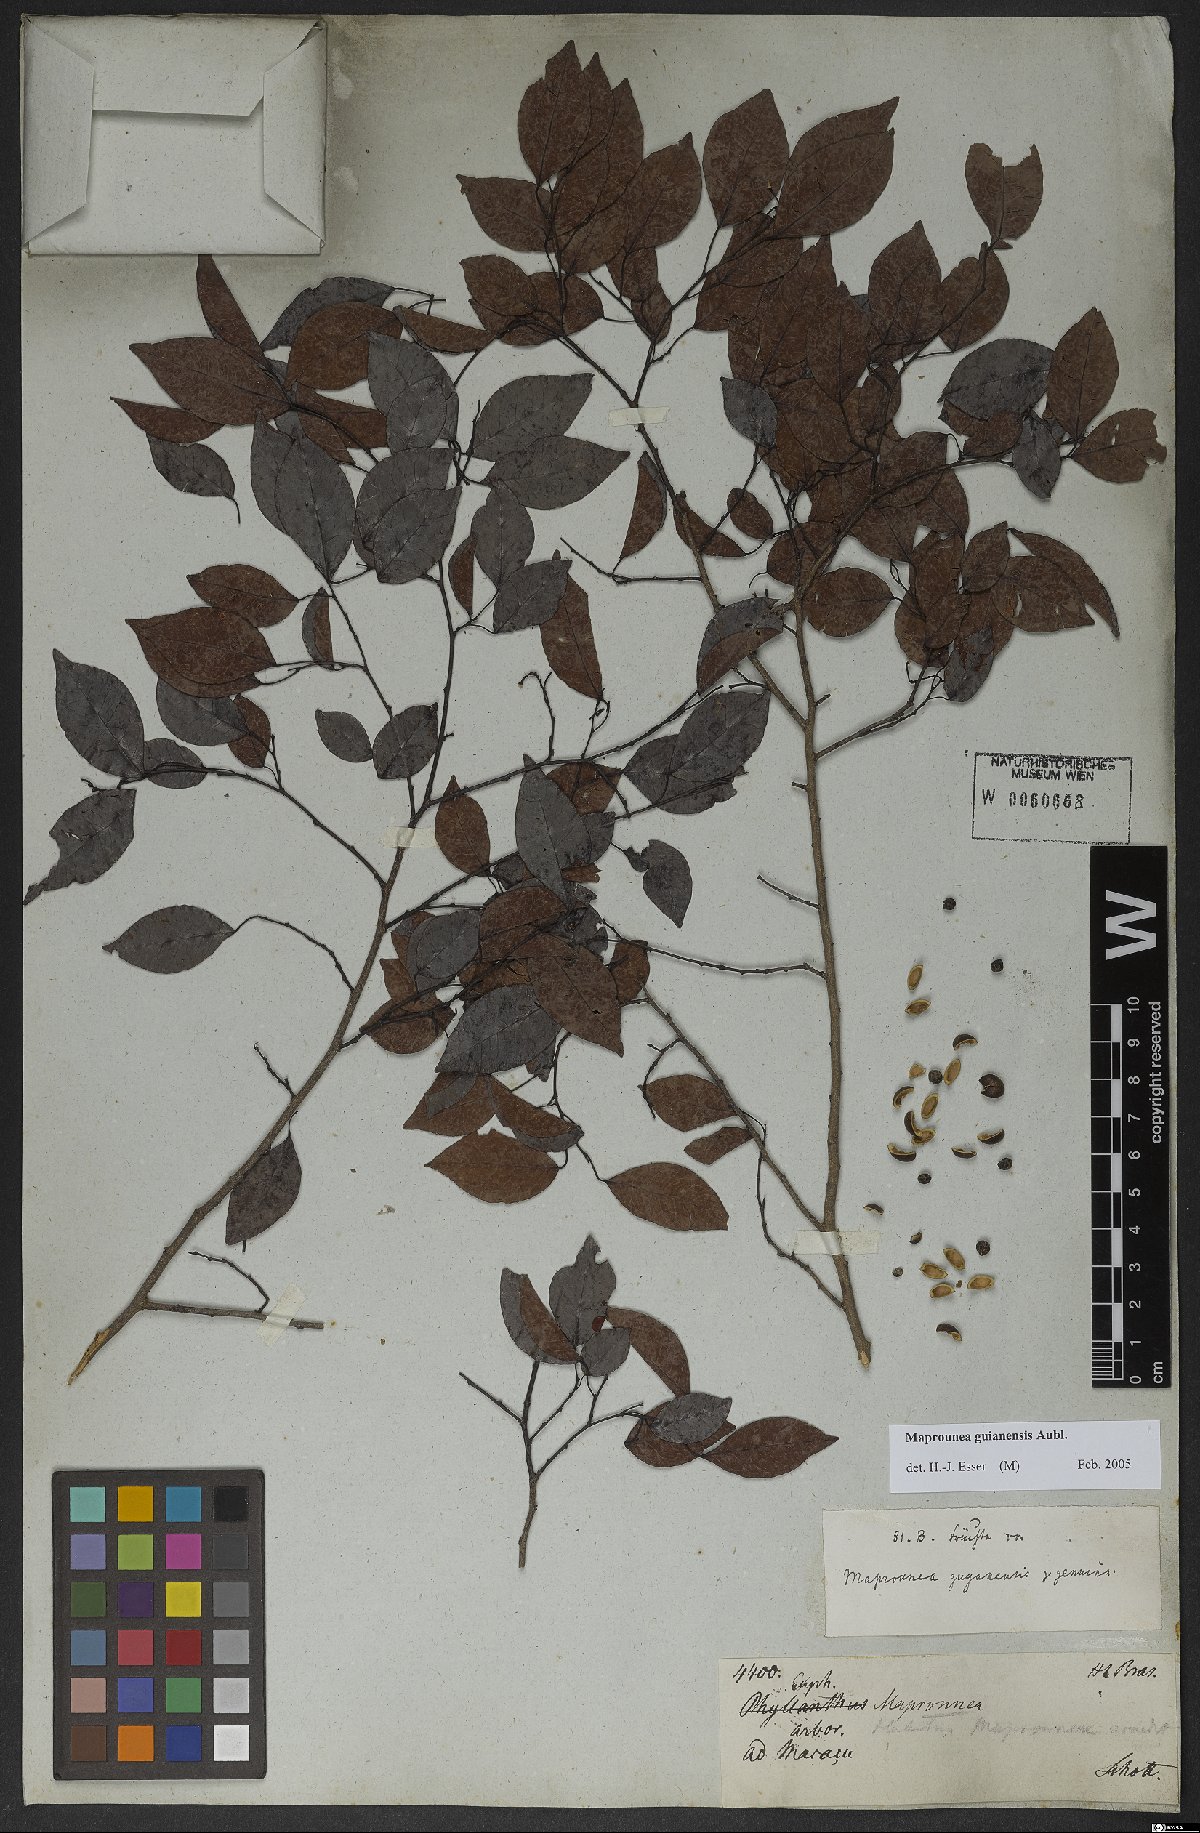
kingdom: Plantae
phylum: Tracheophyta
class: Magnoliopsida
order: Malpighiales
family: Euphorbiaceae
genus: Maprounea
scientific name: Maprounea guianensis
